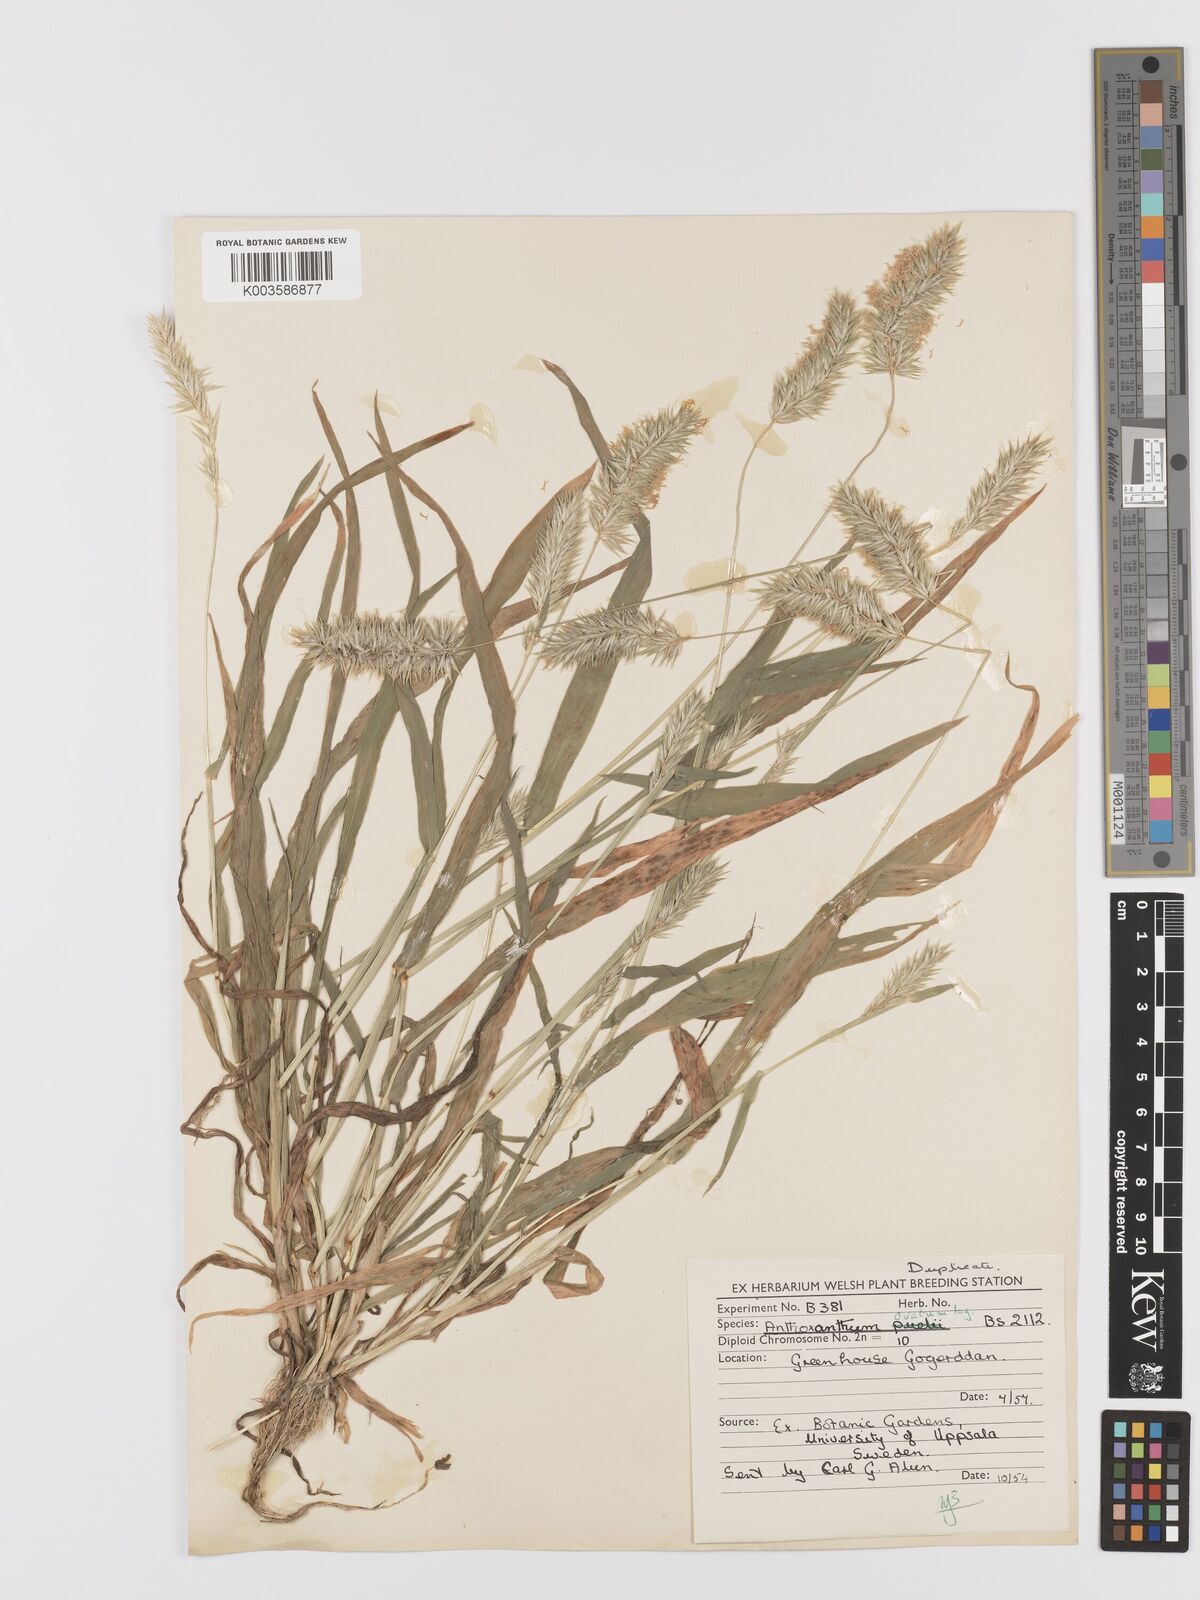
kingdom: Plantae
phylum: Tracheophyta
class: Liliopsida
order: Poales
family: Poaceae
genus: Anthoxanthum
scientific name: Anthoxanthum ovatum
